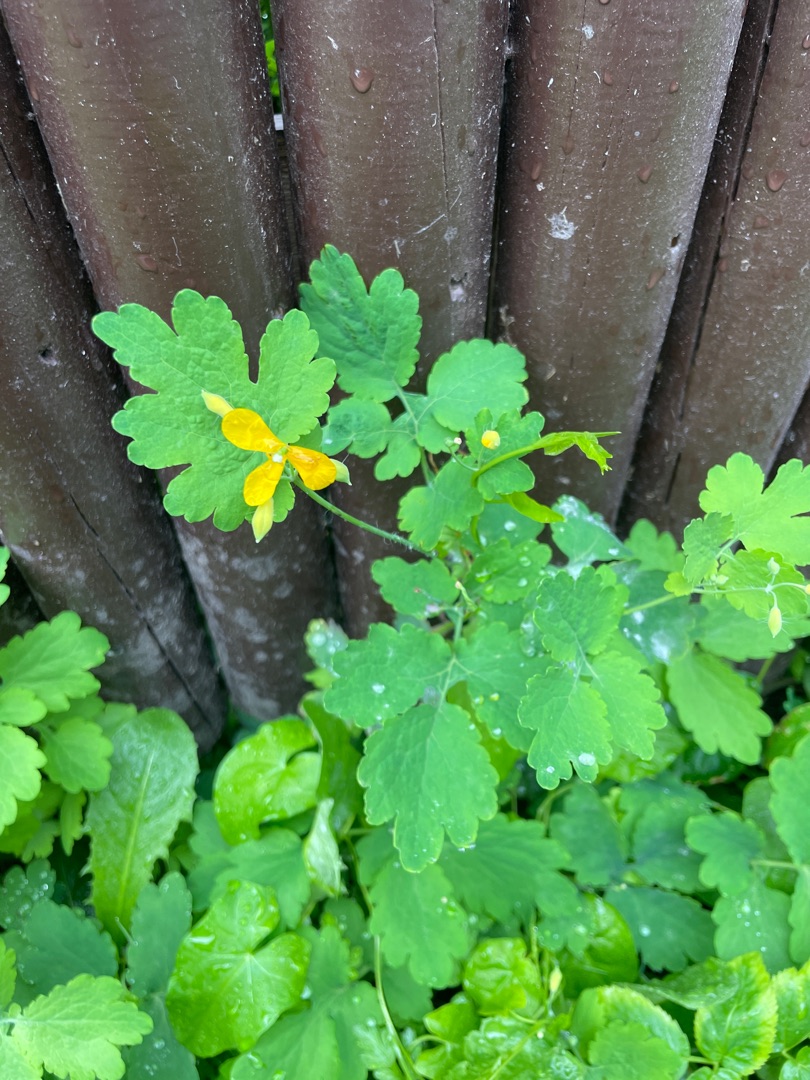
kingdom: Plantae
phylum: Tracheophyta
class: Magnoliopsida
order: Ranunculales
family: Papaveraceae
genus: Chelidonium
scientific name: Chelidonium majus
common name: Svaleurt
